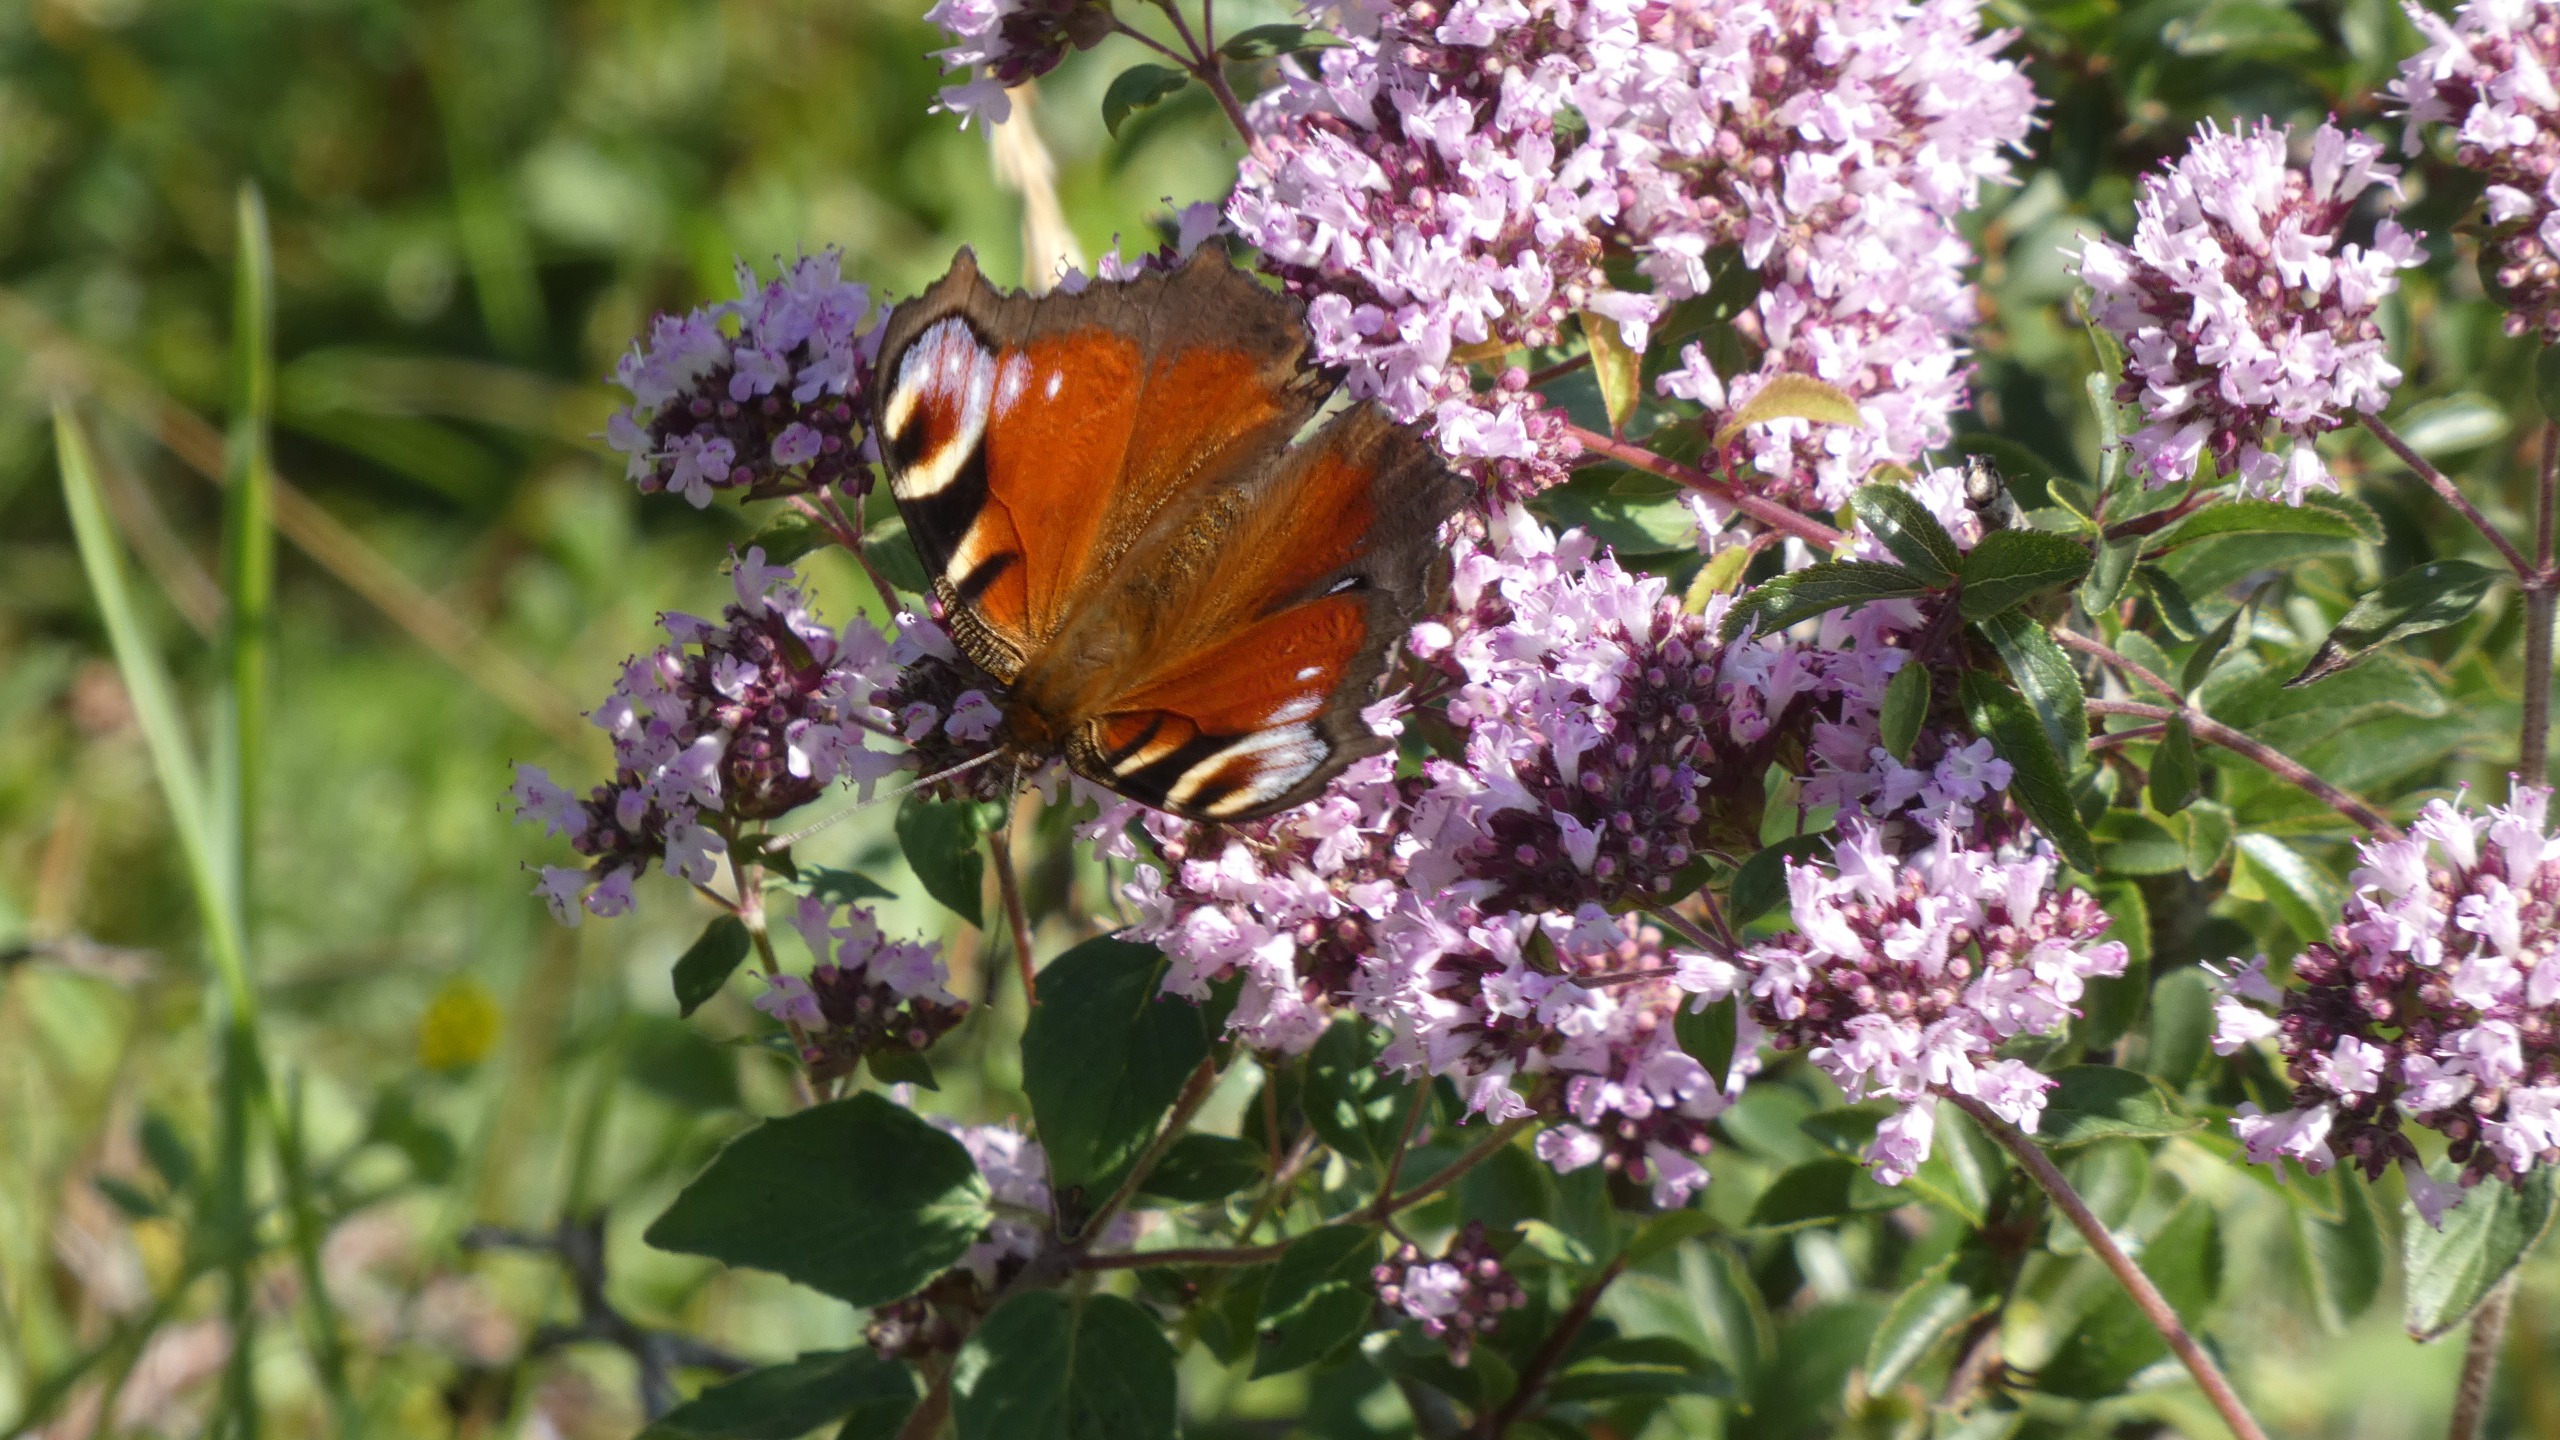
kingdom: Animalia
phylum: Arthropoda
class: Insecta
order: Lepidoptera
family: Nymphalidae
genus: Aglais
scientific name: Aglais io
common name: Dagpåfugleøje
